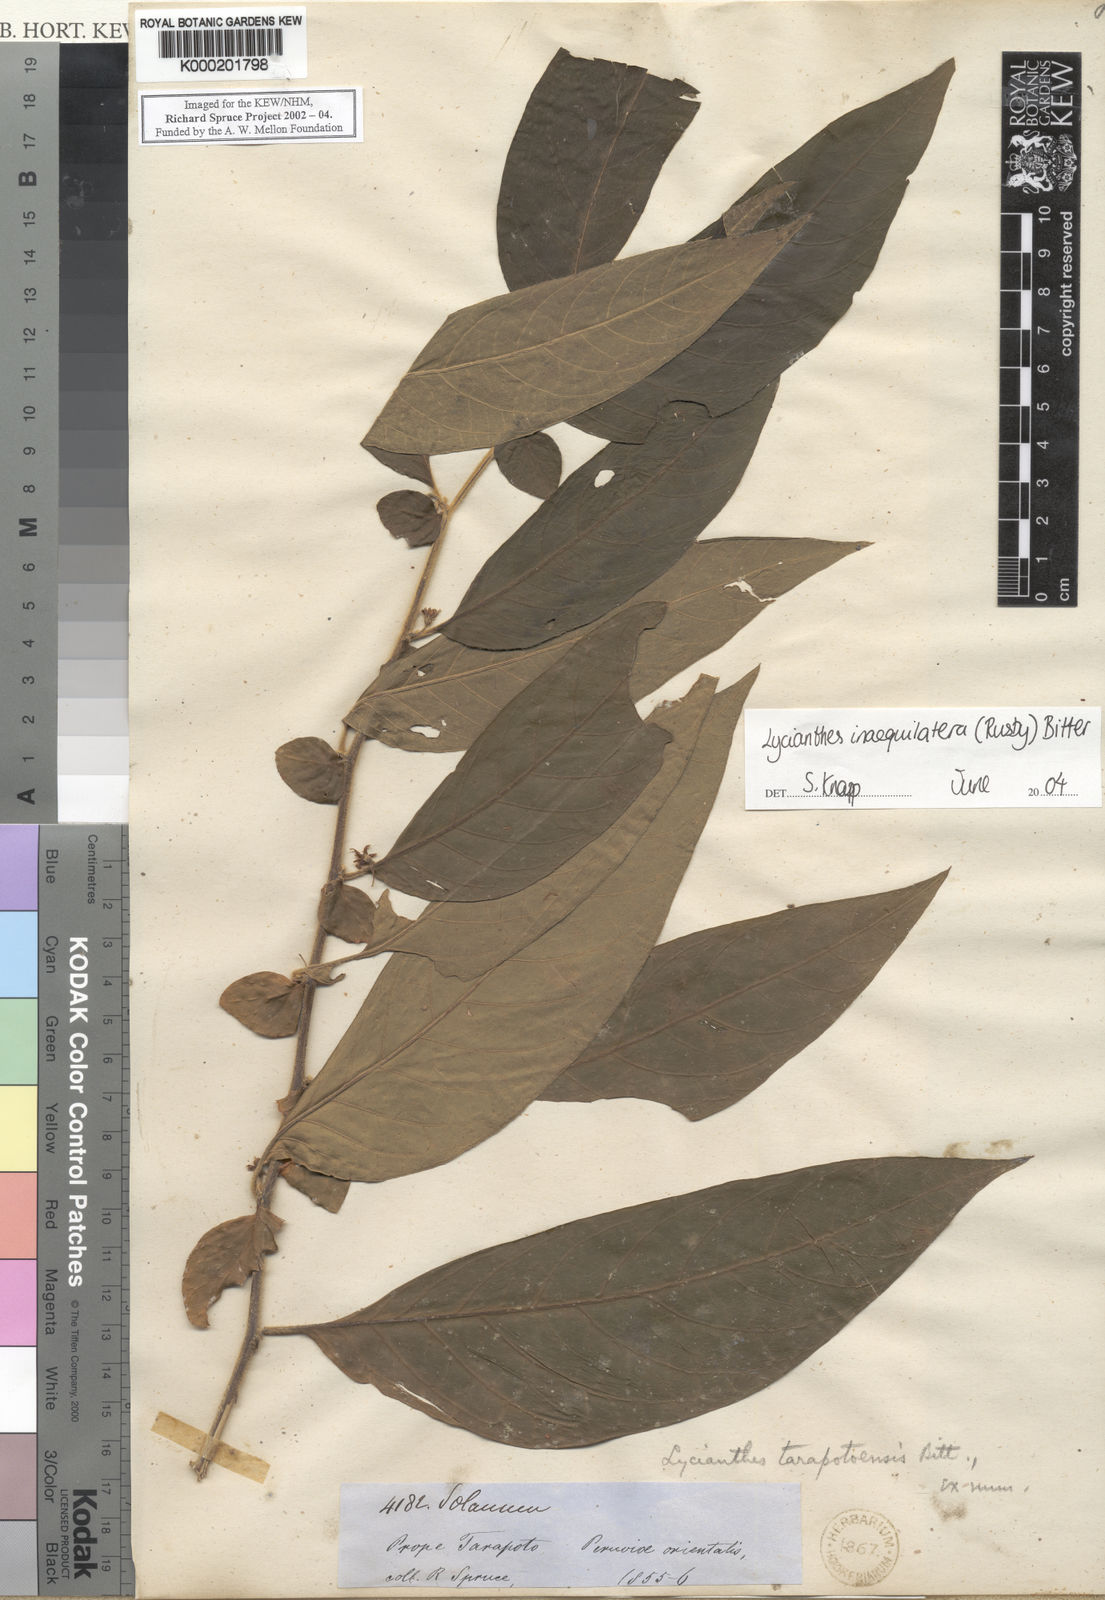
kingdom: Plantae
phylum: Tracheophyta
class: Magnoliopsida
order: Solanales
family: Solanaceae
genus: Lycianthes
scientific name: Lycianthes inaequilatera
